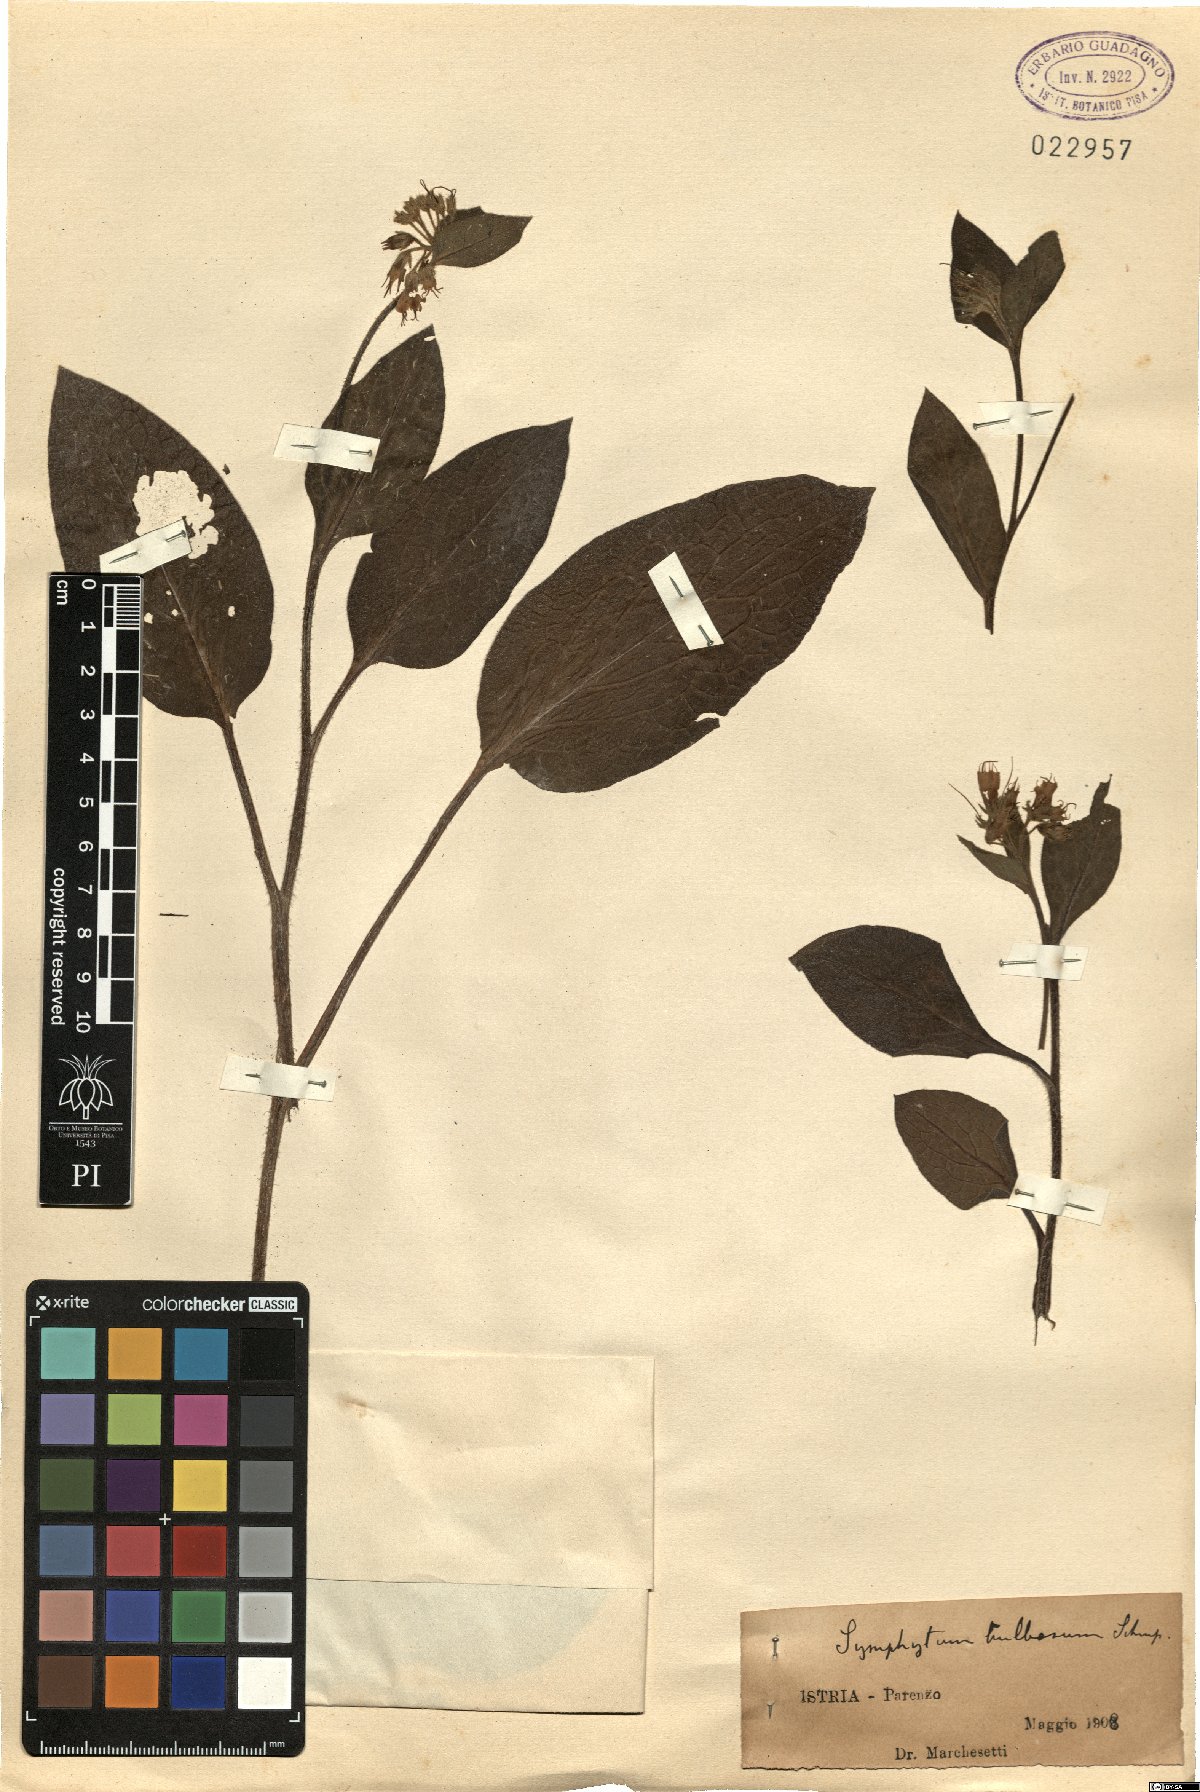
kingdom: Plantae
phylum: Tracheophyta
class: Magnoliopsida
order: Boraginales
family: Boraginaceae
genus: Symphytum
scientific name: Symphytum bulbosum
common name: Bulbous comfrey
